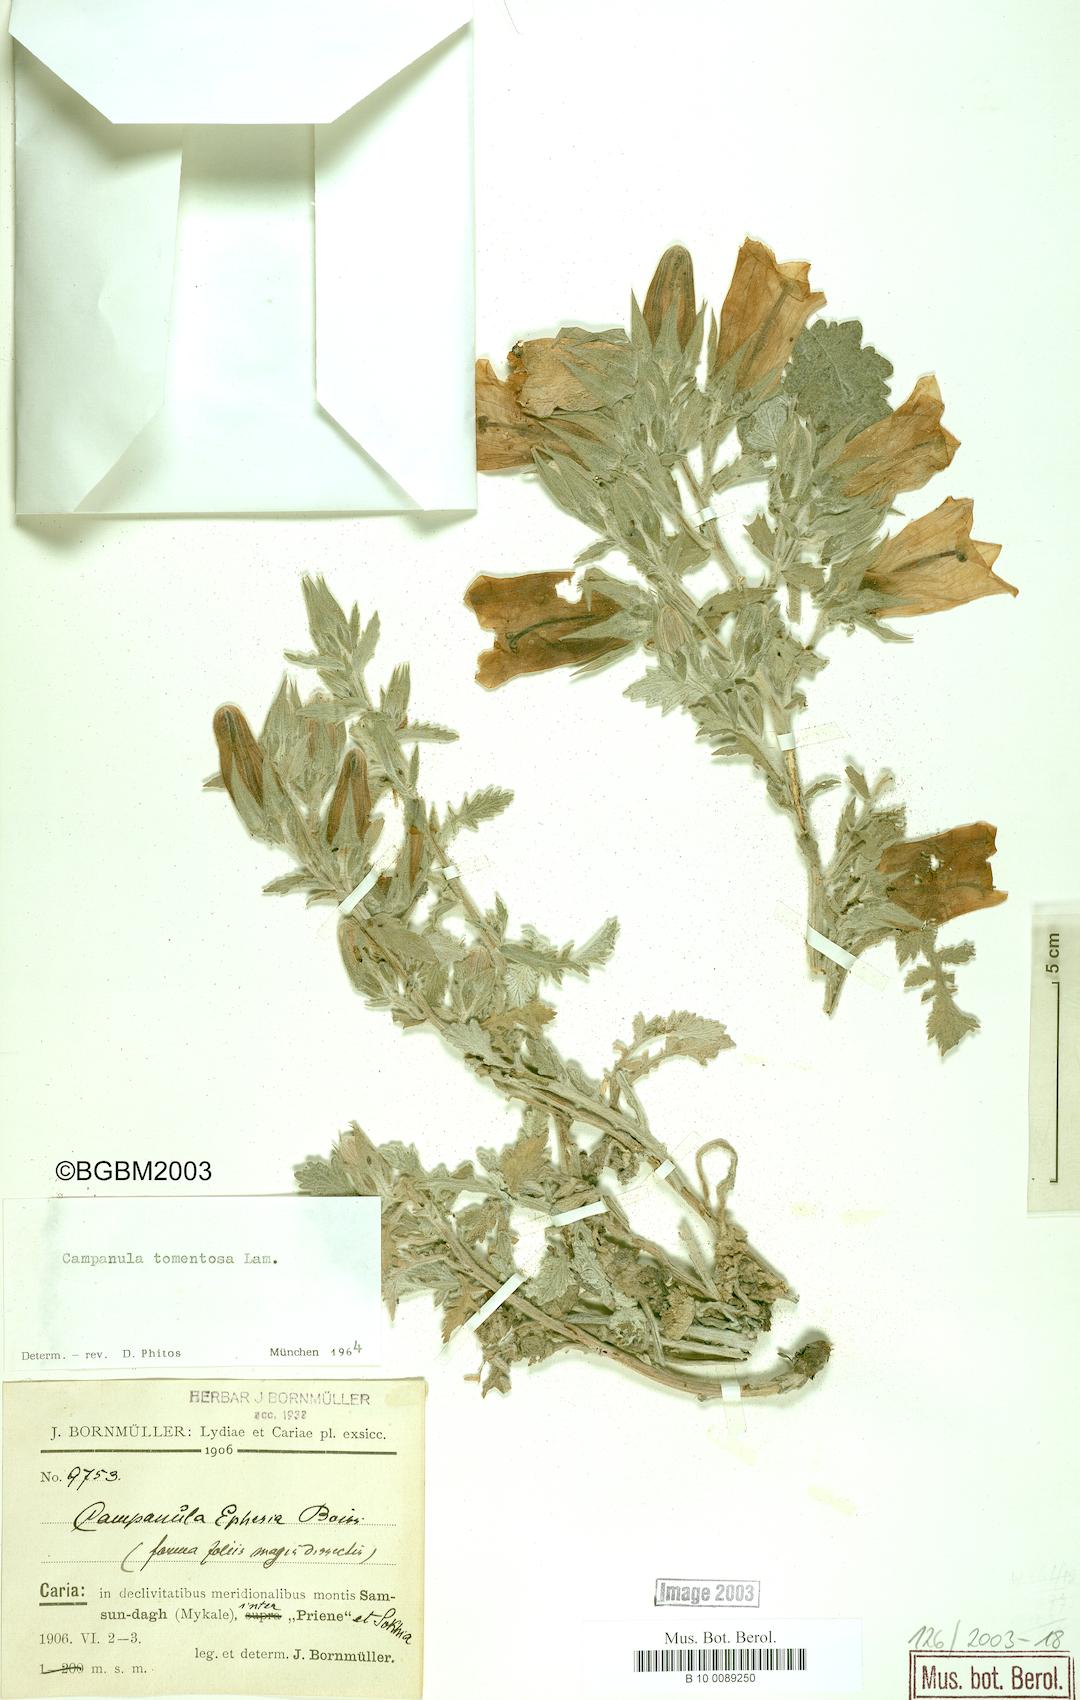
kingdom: Plantae
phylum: Tracheophyta
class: Magnoliopsida
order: Asterales
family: Campanulaceae
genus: Campanula
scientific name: Campanula tomentosa
